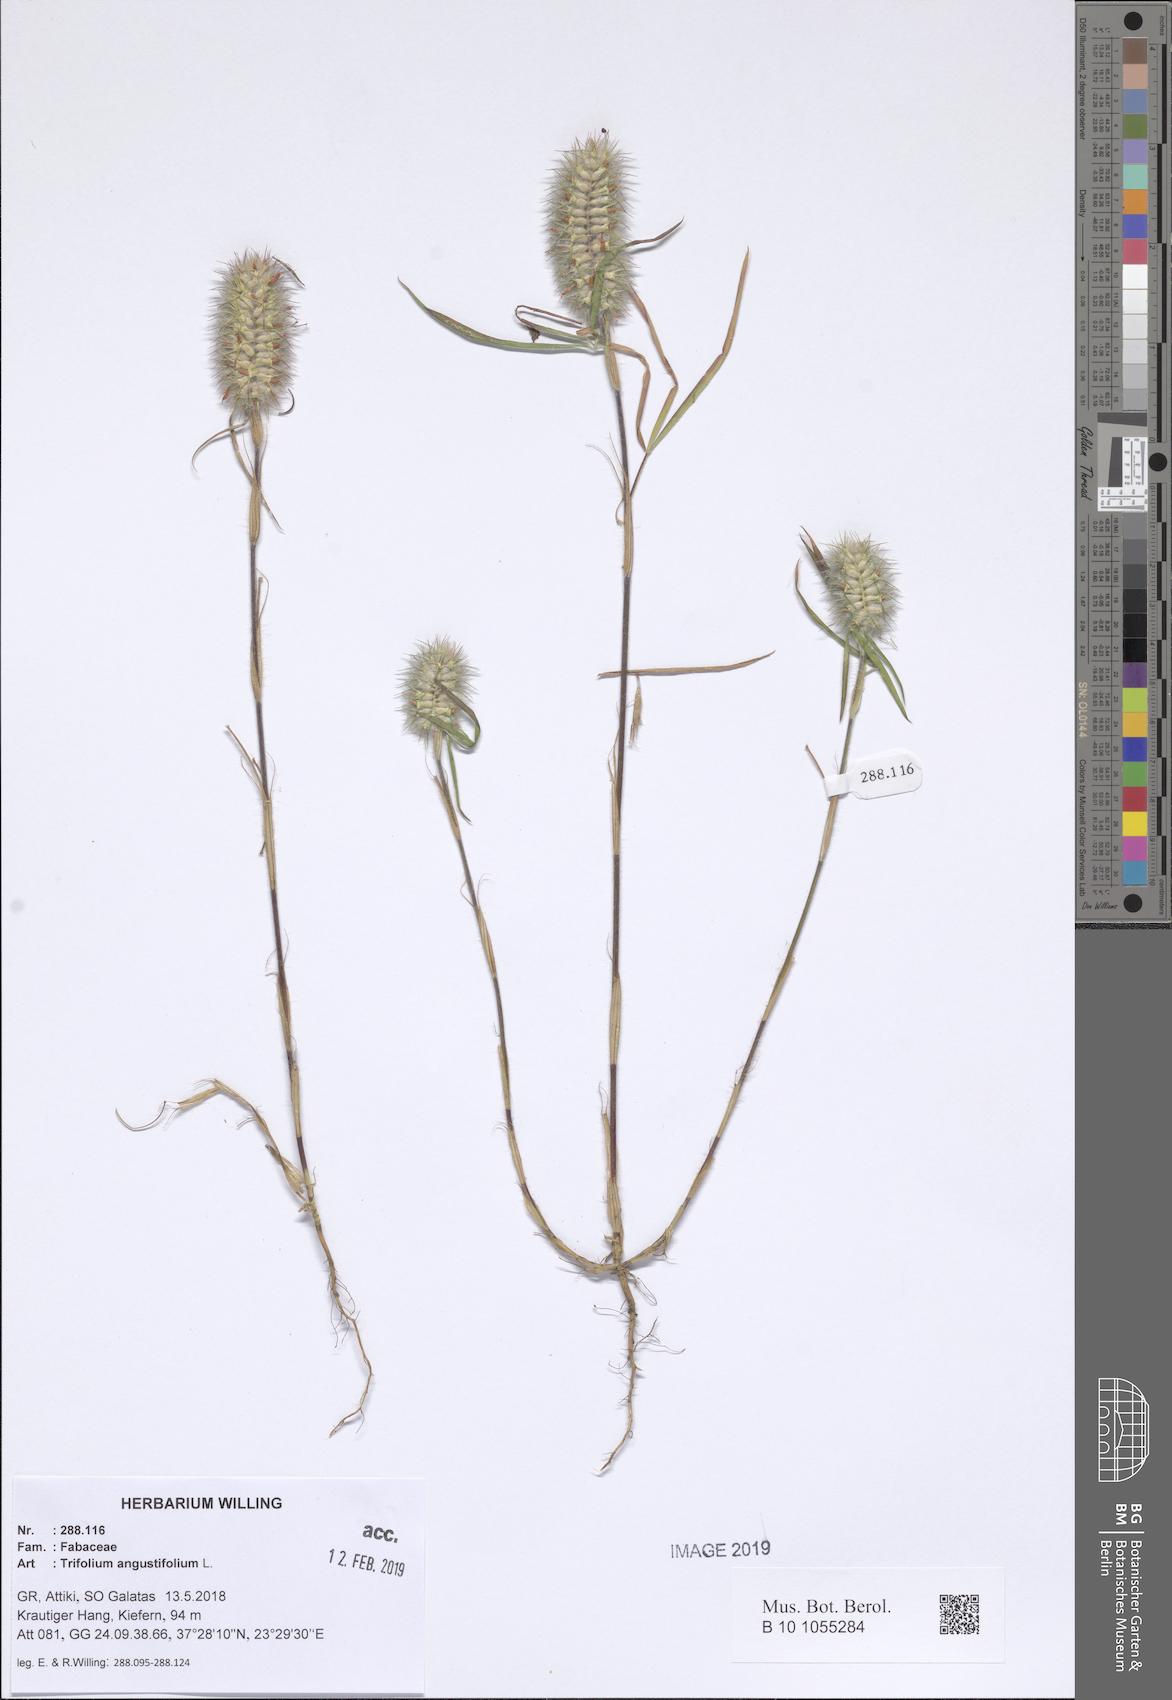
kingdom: Plantae
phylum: Tracheophyta
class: Magnoliopsida
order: Fabales
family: Fabaceae
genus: Trifolium
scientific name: Trifolium angustifolium
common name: Narrow clover
